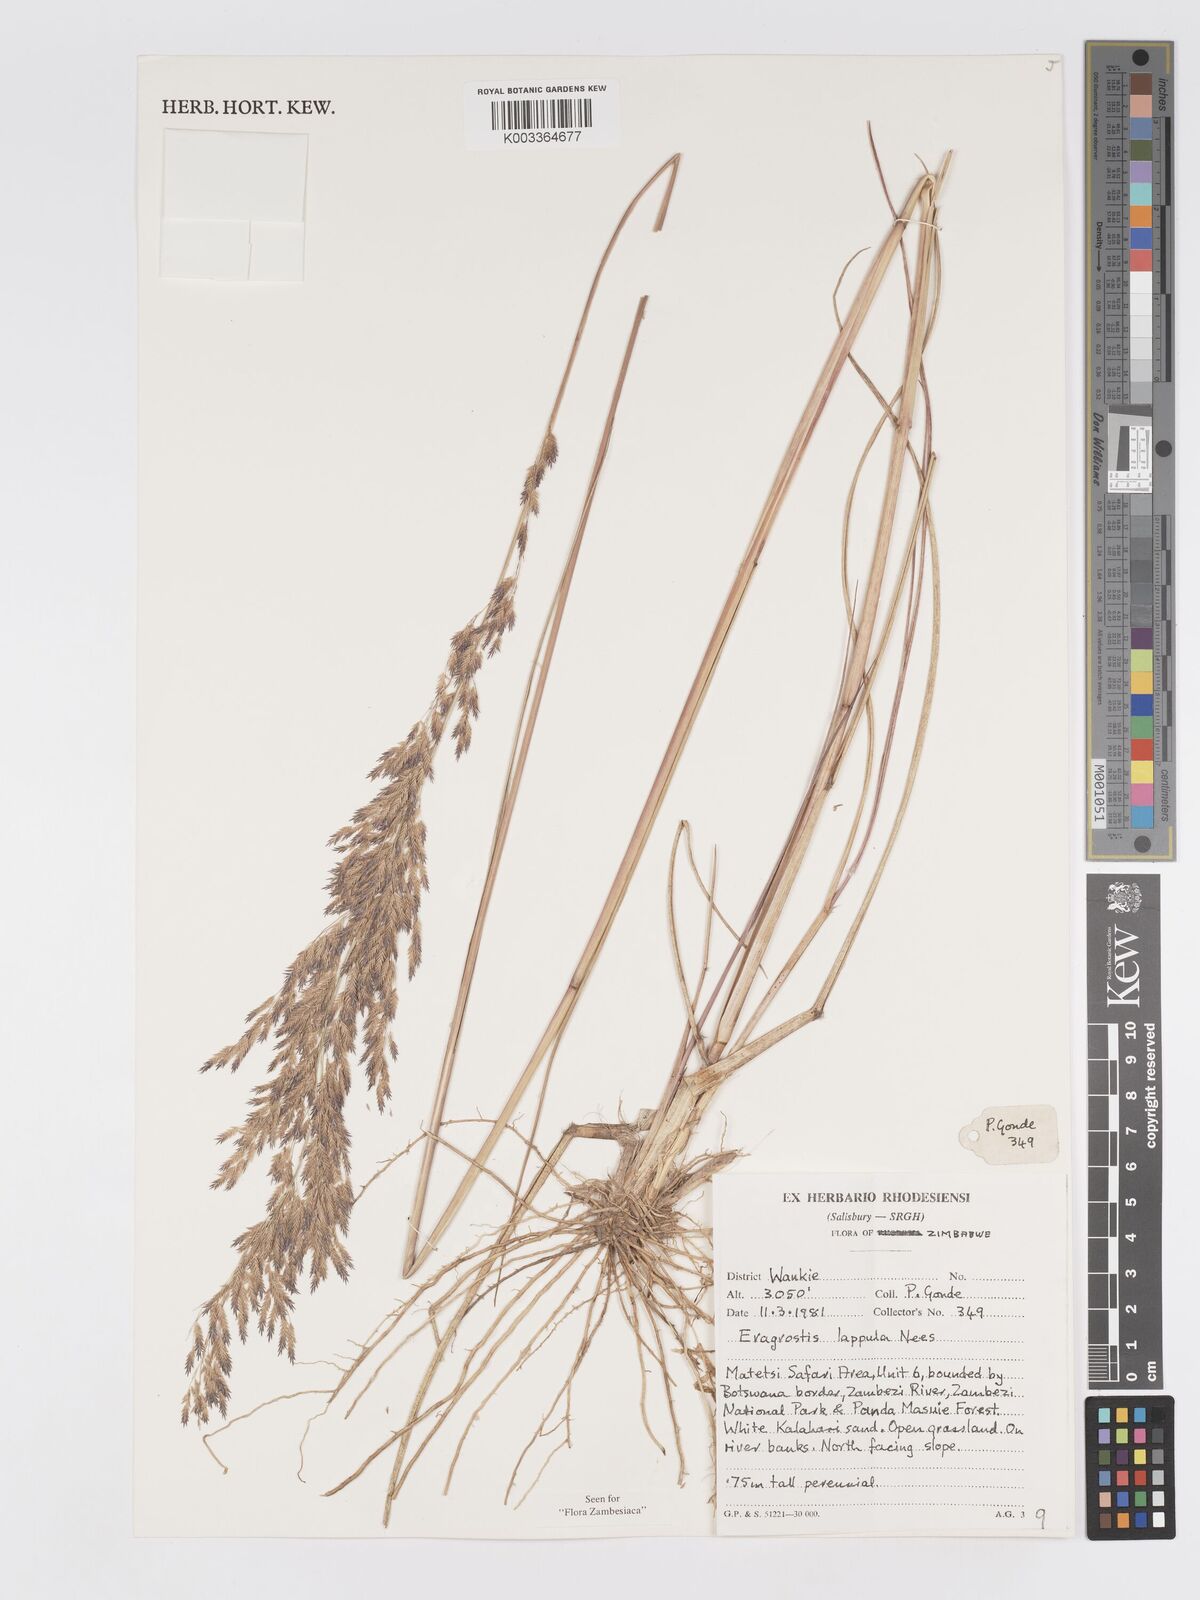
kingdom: Plantae
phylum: Tracheophyta
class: Liliopsida
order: Poales
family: Poaceae
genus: Eragrostis
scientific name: Eragrostis lappula
